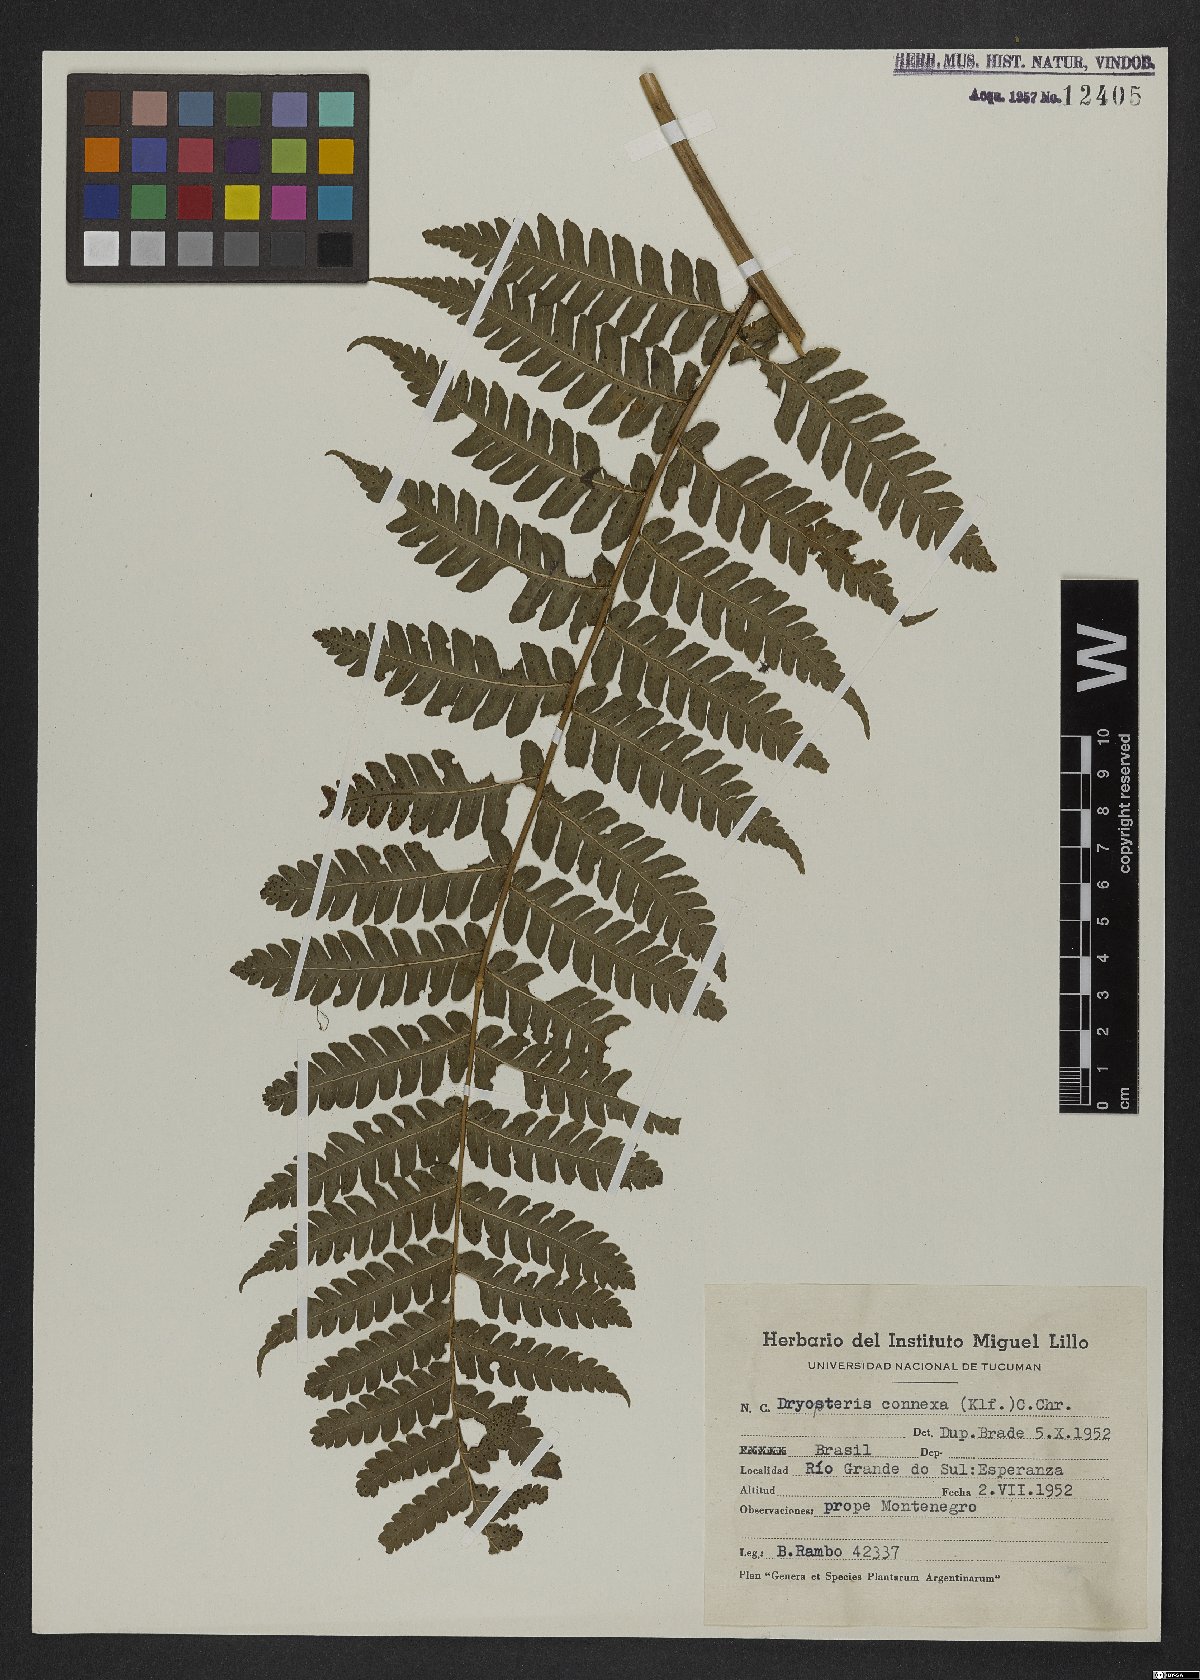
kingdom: Plantae
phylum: Tracheophyta
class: Polypodiopsida
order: Polypodiales
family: Dryopteridaceae
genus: Megalastrum
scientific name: Megalastrum connexum
